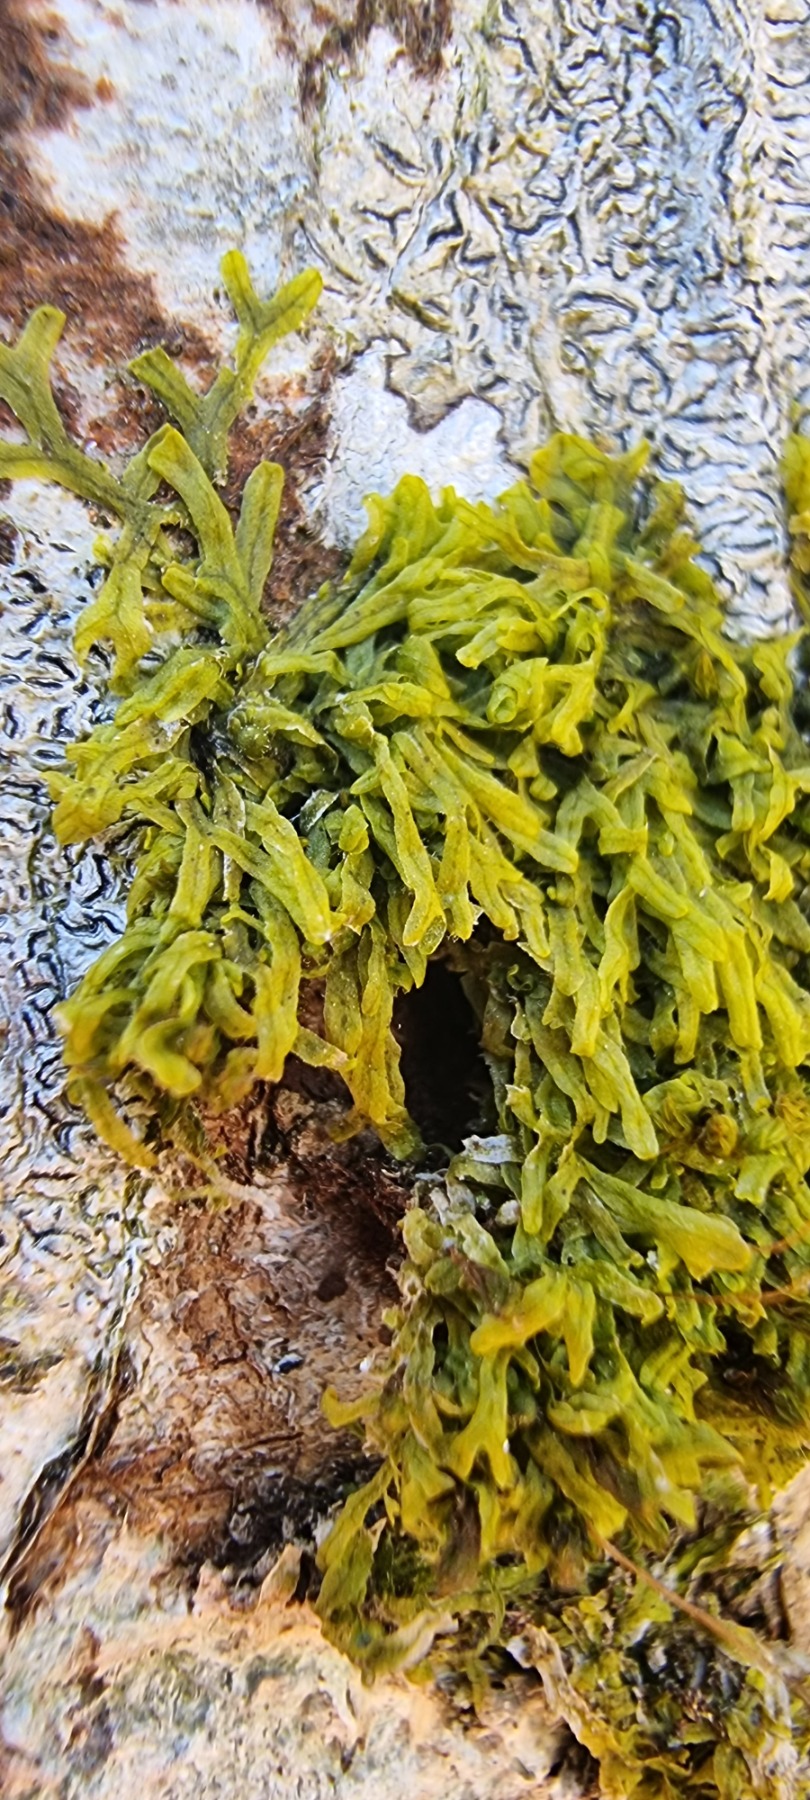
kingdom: Plantae
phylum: Marchantiophyta
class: Jungermanniopsida
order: Metzgeriales
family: Metzgeriaceae
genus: Metzgeria
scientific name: Metzgeria furcata
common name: Almindelig gaffelløv
